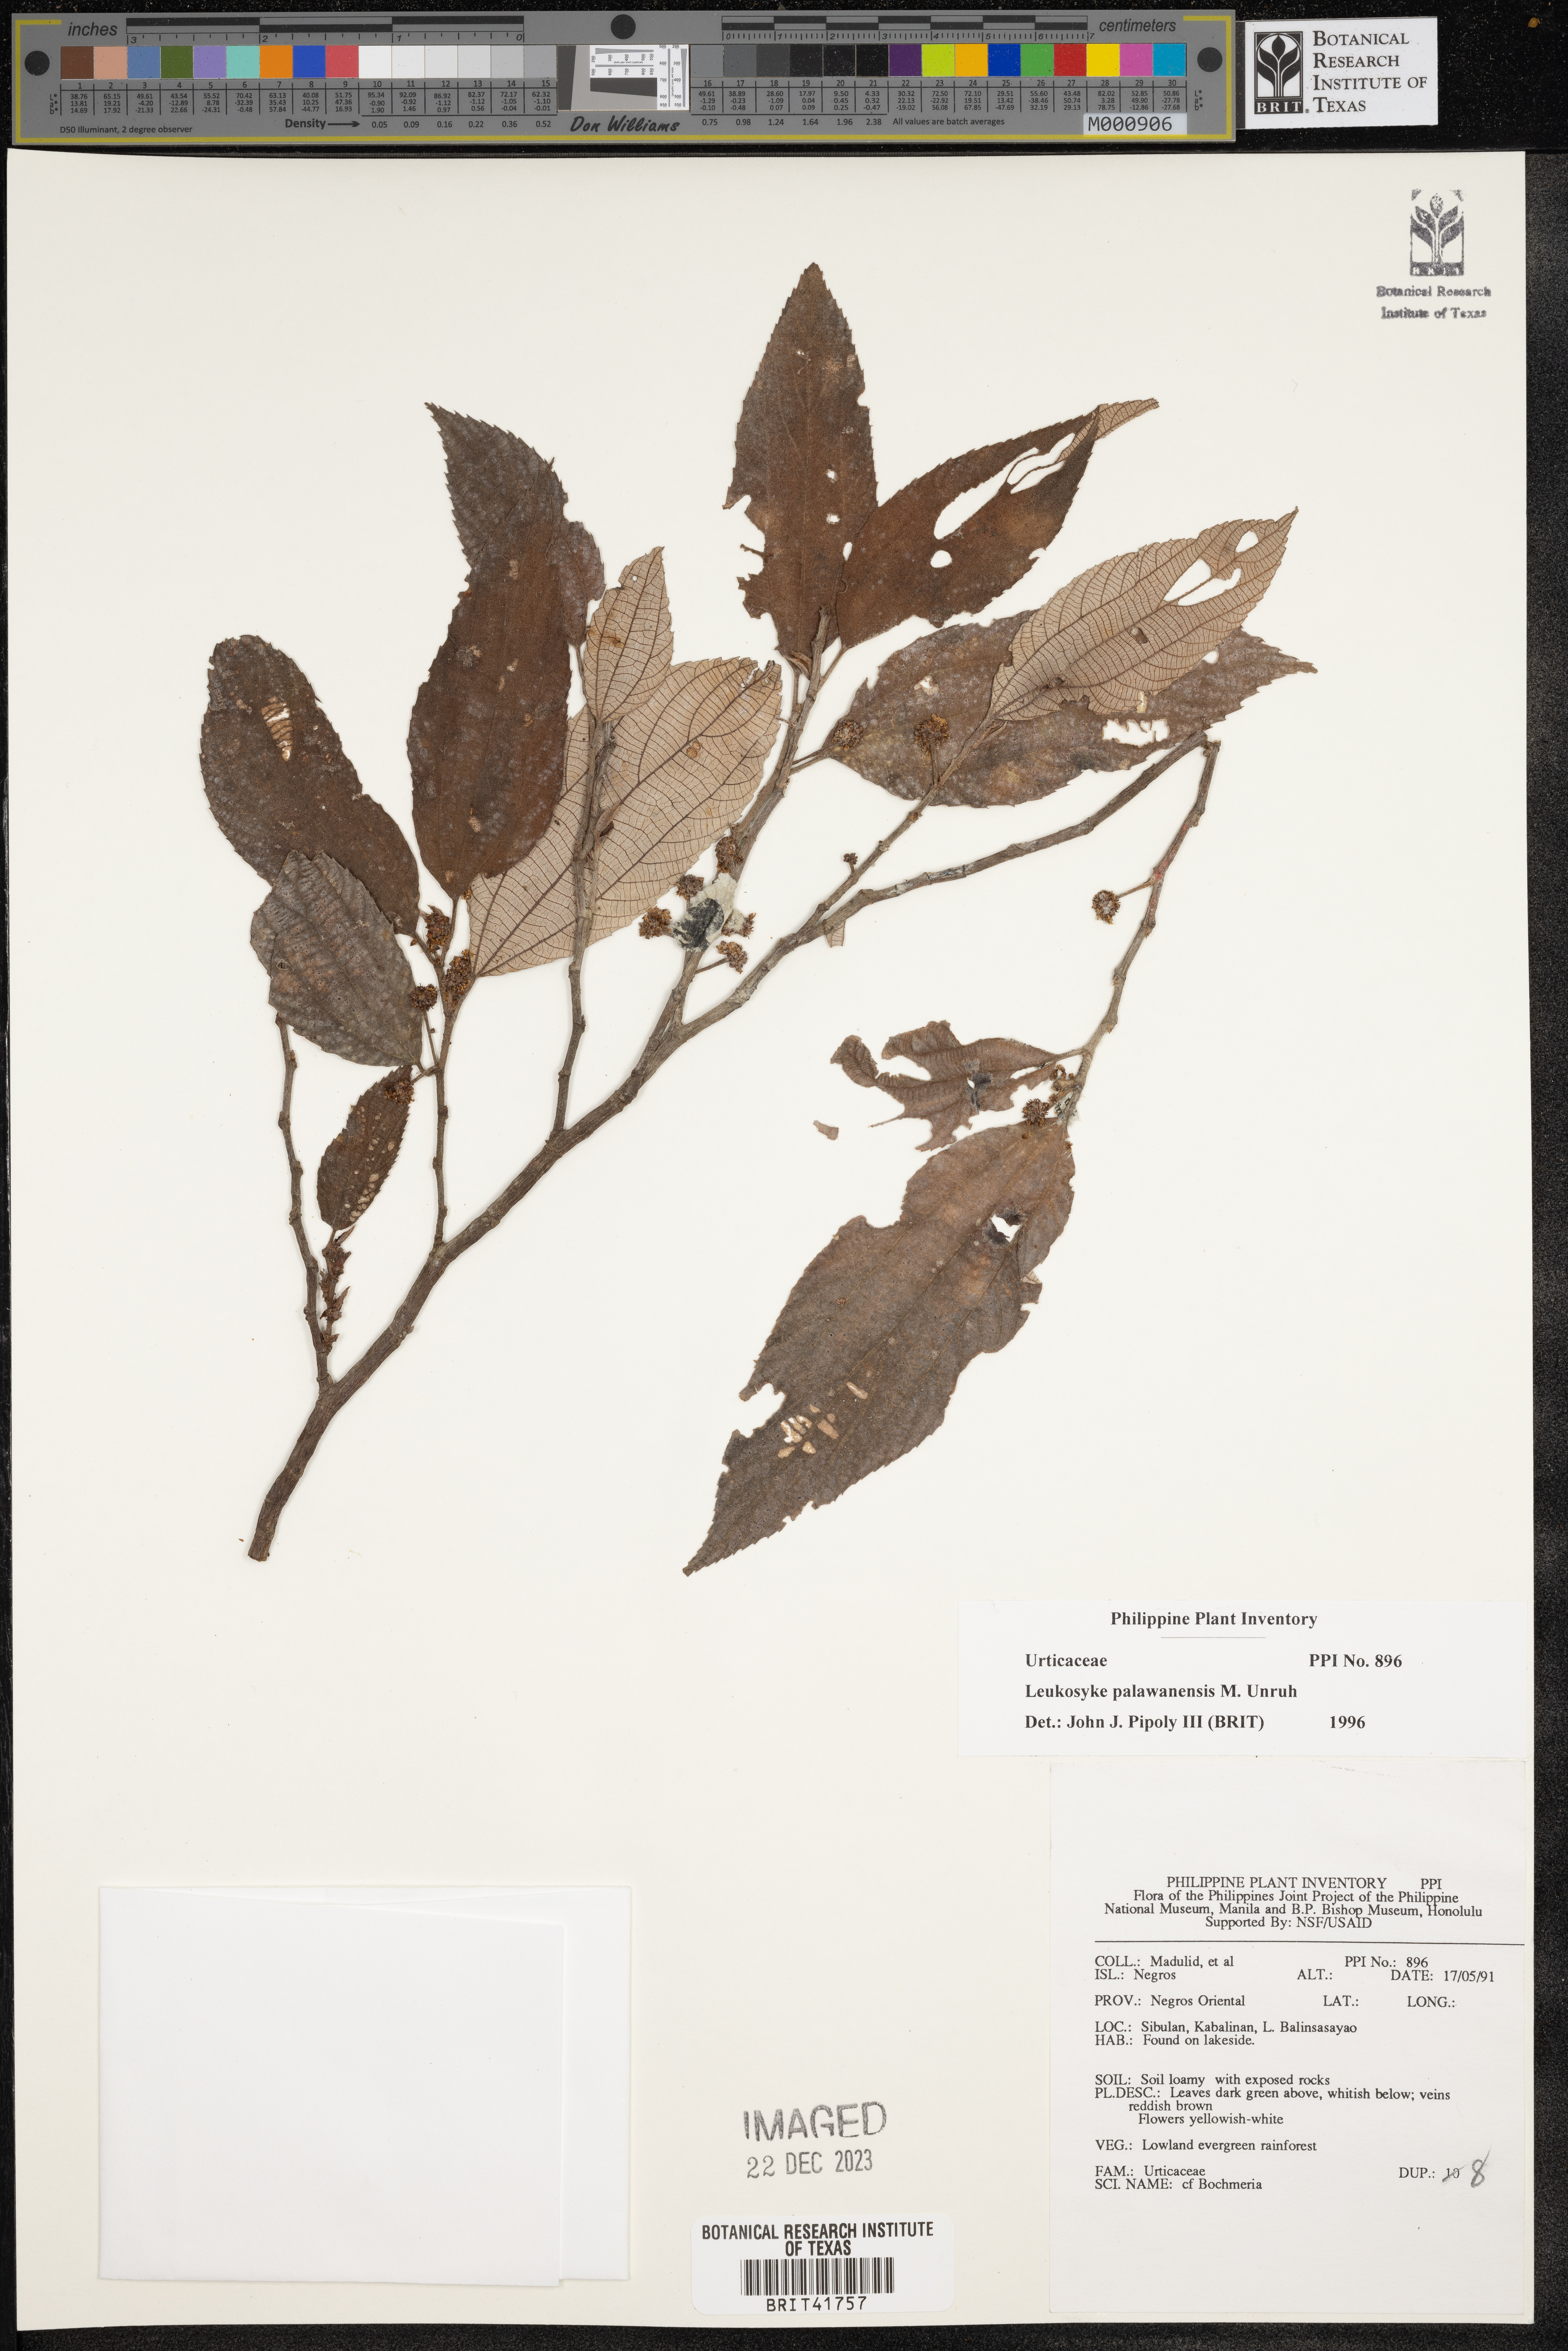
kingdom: Plantae
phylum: Tracheophyta
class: Magnoliopsida
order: Rosales
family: Urticaceae
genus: Leucosyke
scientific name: Leucosyke capitellata
